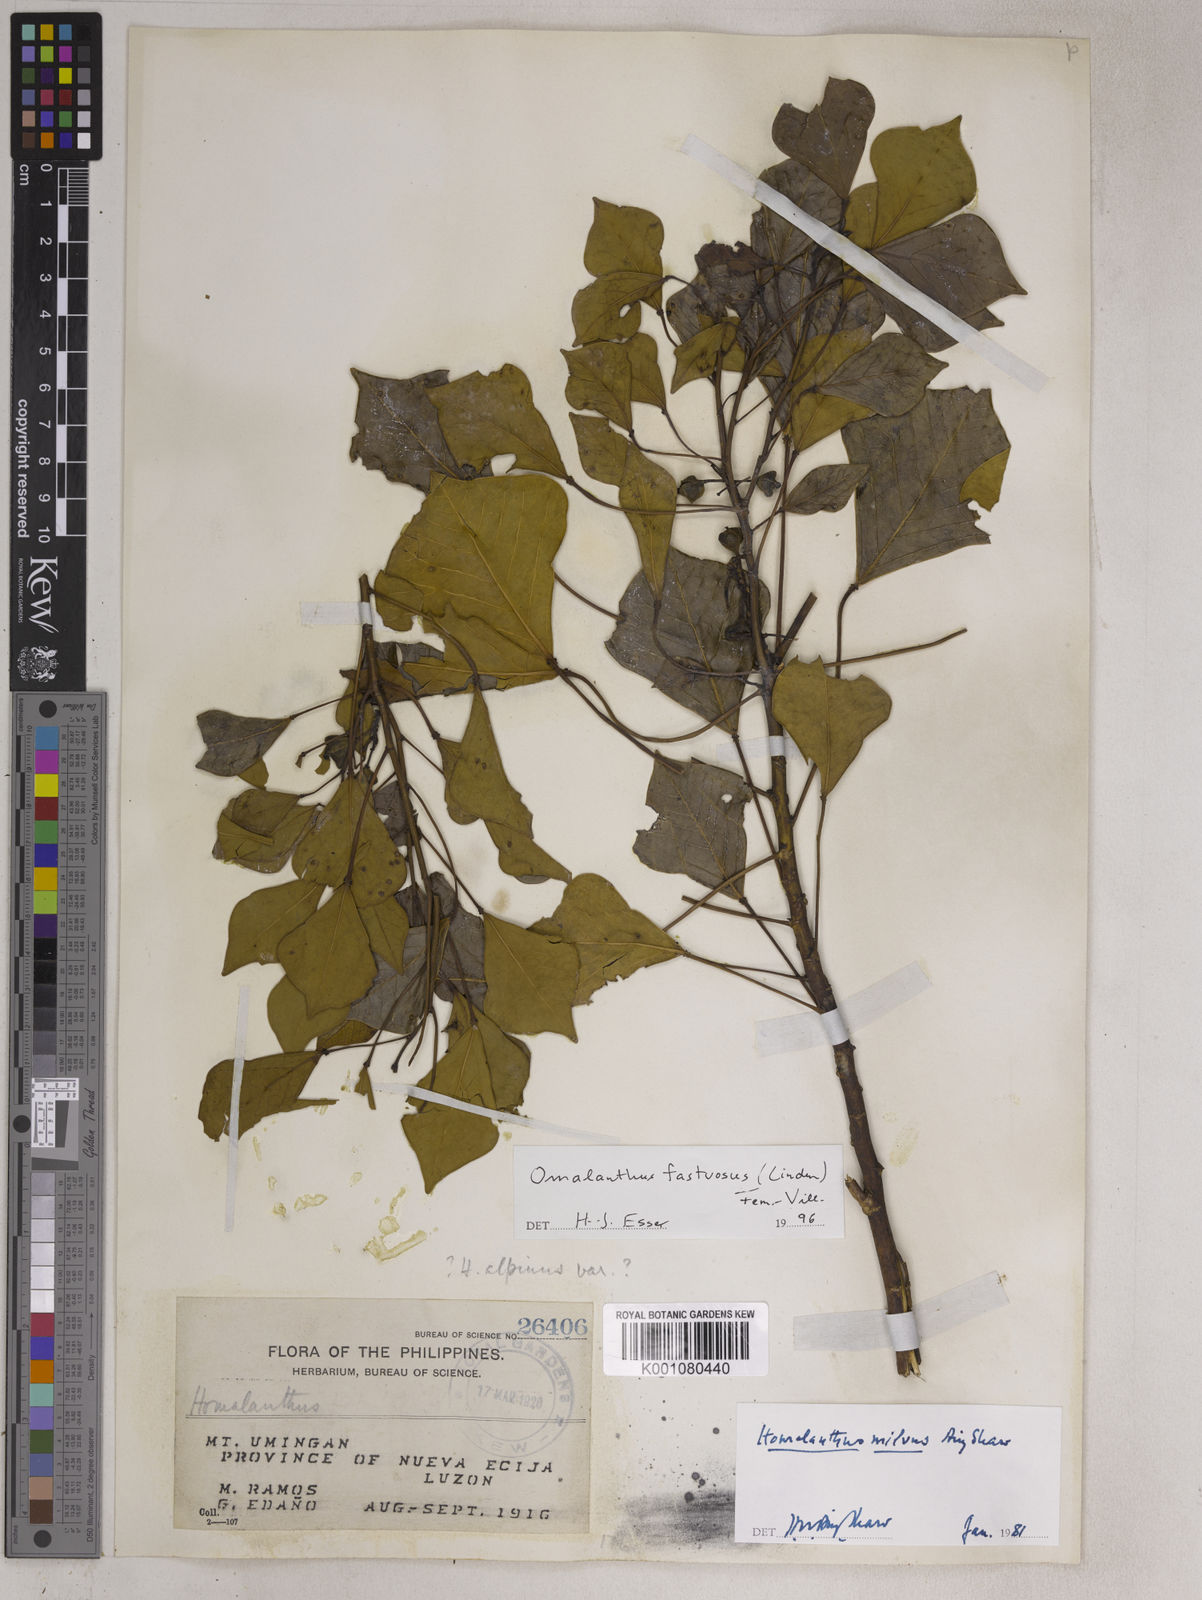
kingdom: Plantae
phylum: Tracheophyta
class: Magnoliopsida
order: Malpighiales
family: Euphorbiaceae
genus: Homalanthus
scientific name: Homalanthus fastuosus
